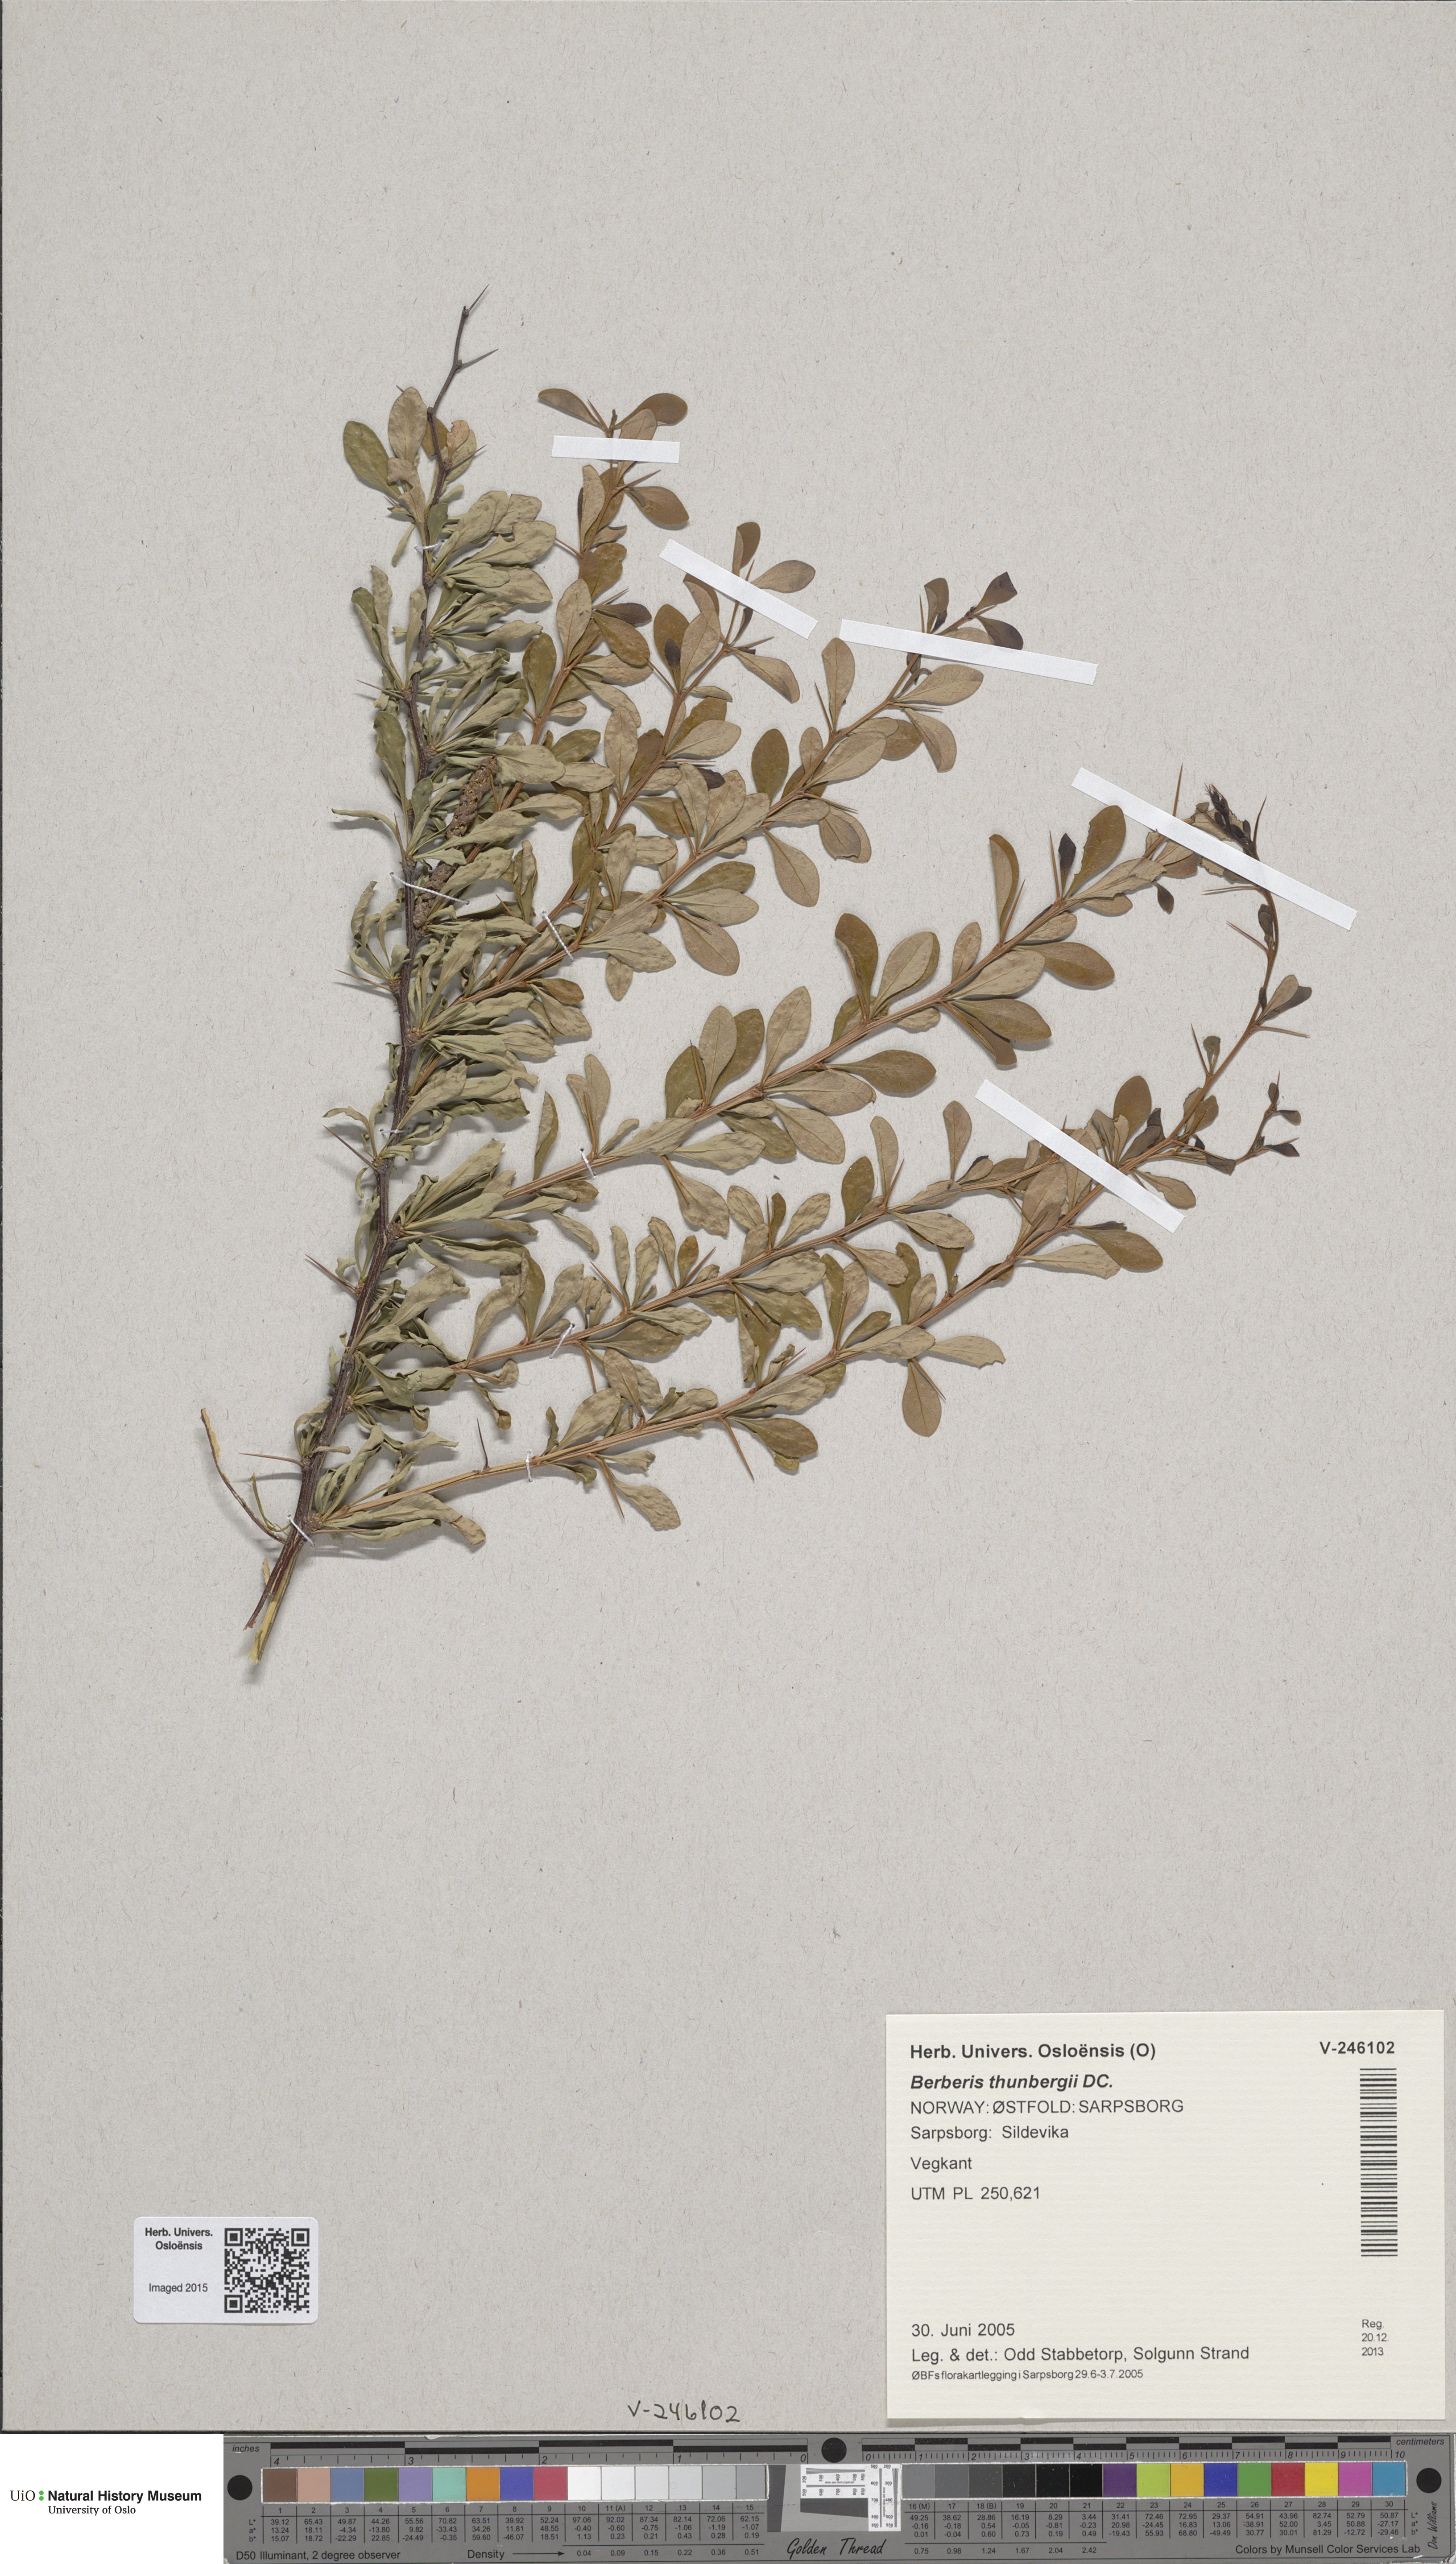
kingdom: Plantae
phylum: Tracheophyta
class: Magnoliopsida
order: Ranunculales
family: Berberidaceae
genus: Berberis
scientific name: Berberis thunbergii
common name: Japanese barberry
